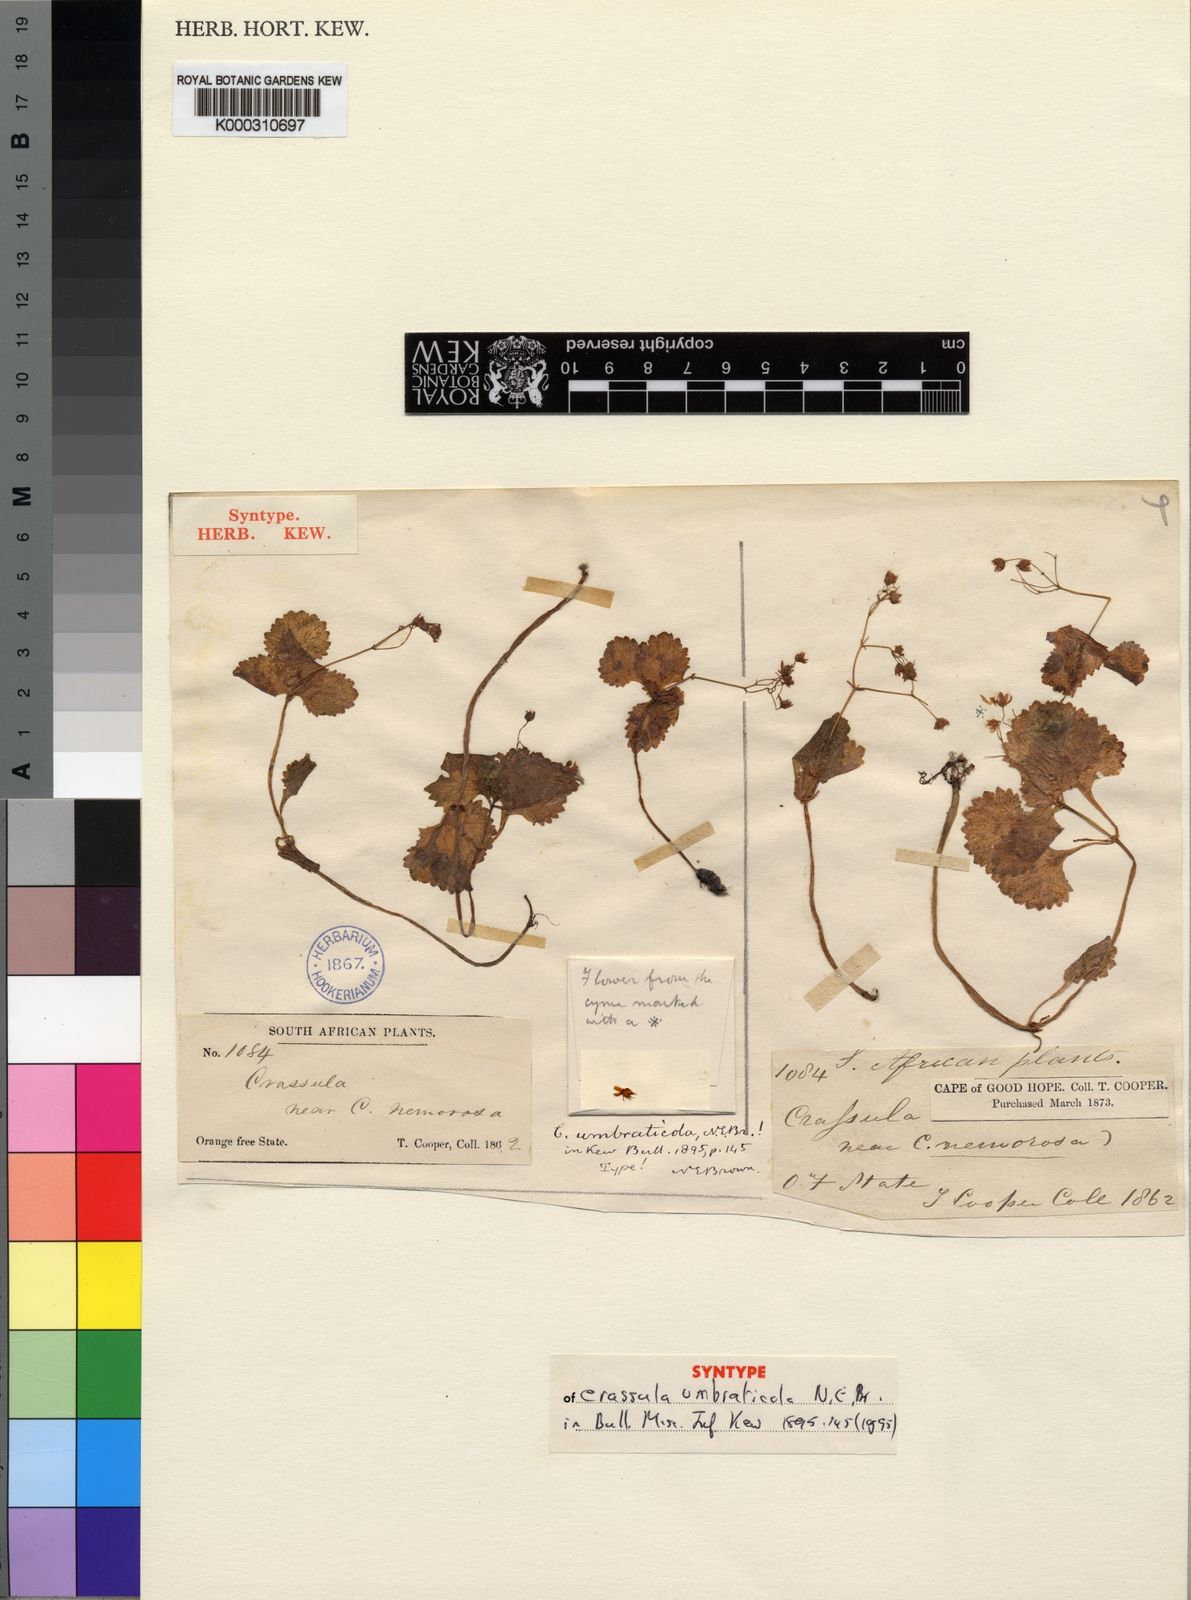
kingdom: Plantae
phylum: Tracheophyta
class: Magnoliopsida
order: Saxifragales
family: Crassulaceae
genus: Crassula
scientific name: Crassula umbraticola
